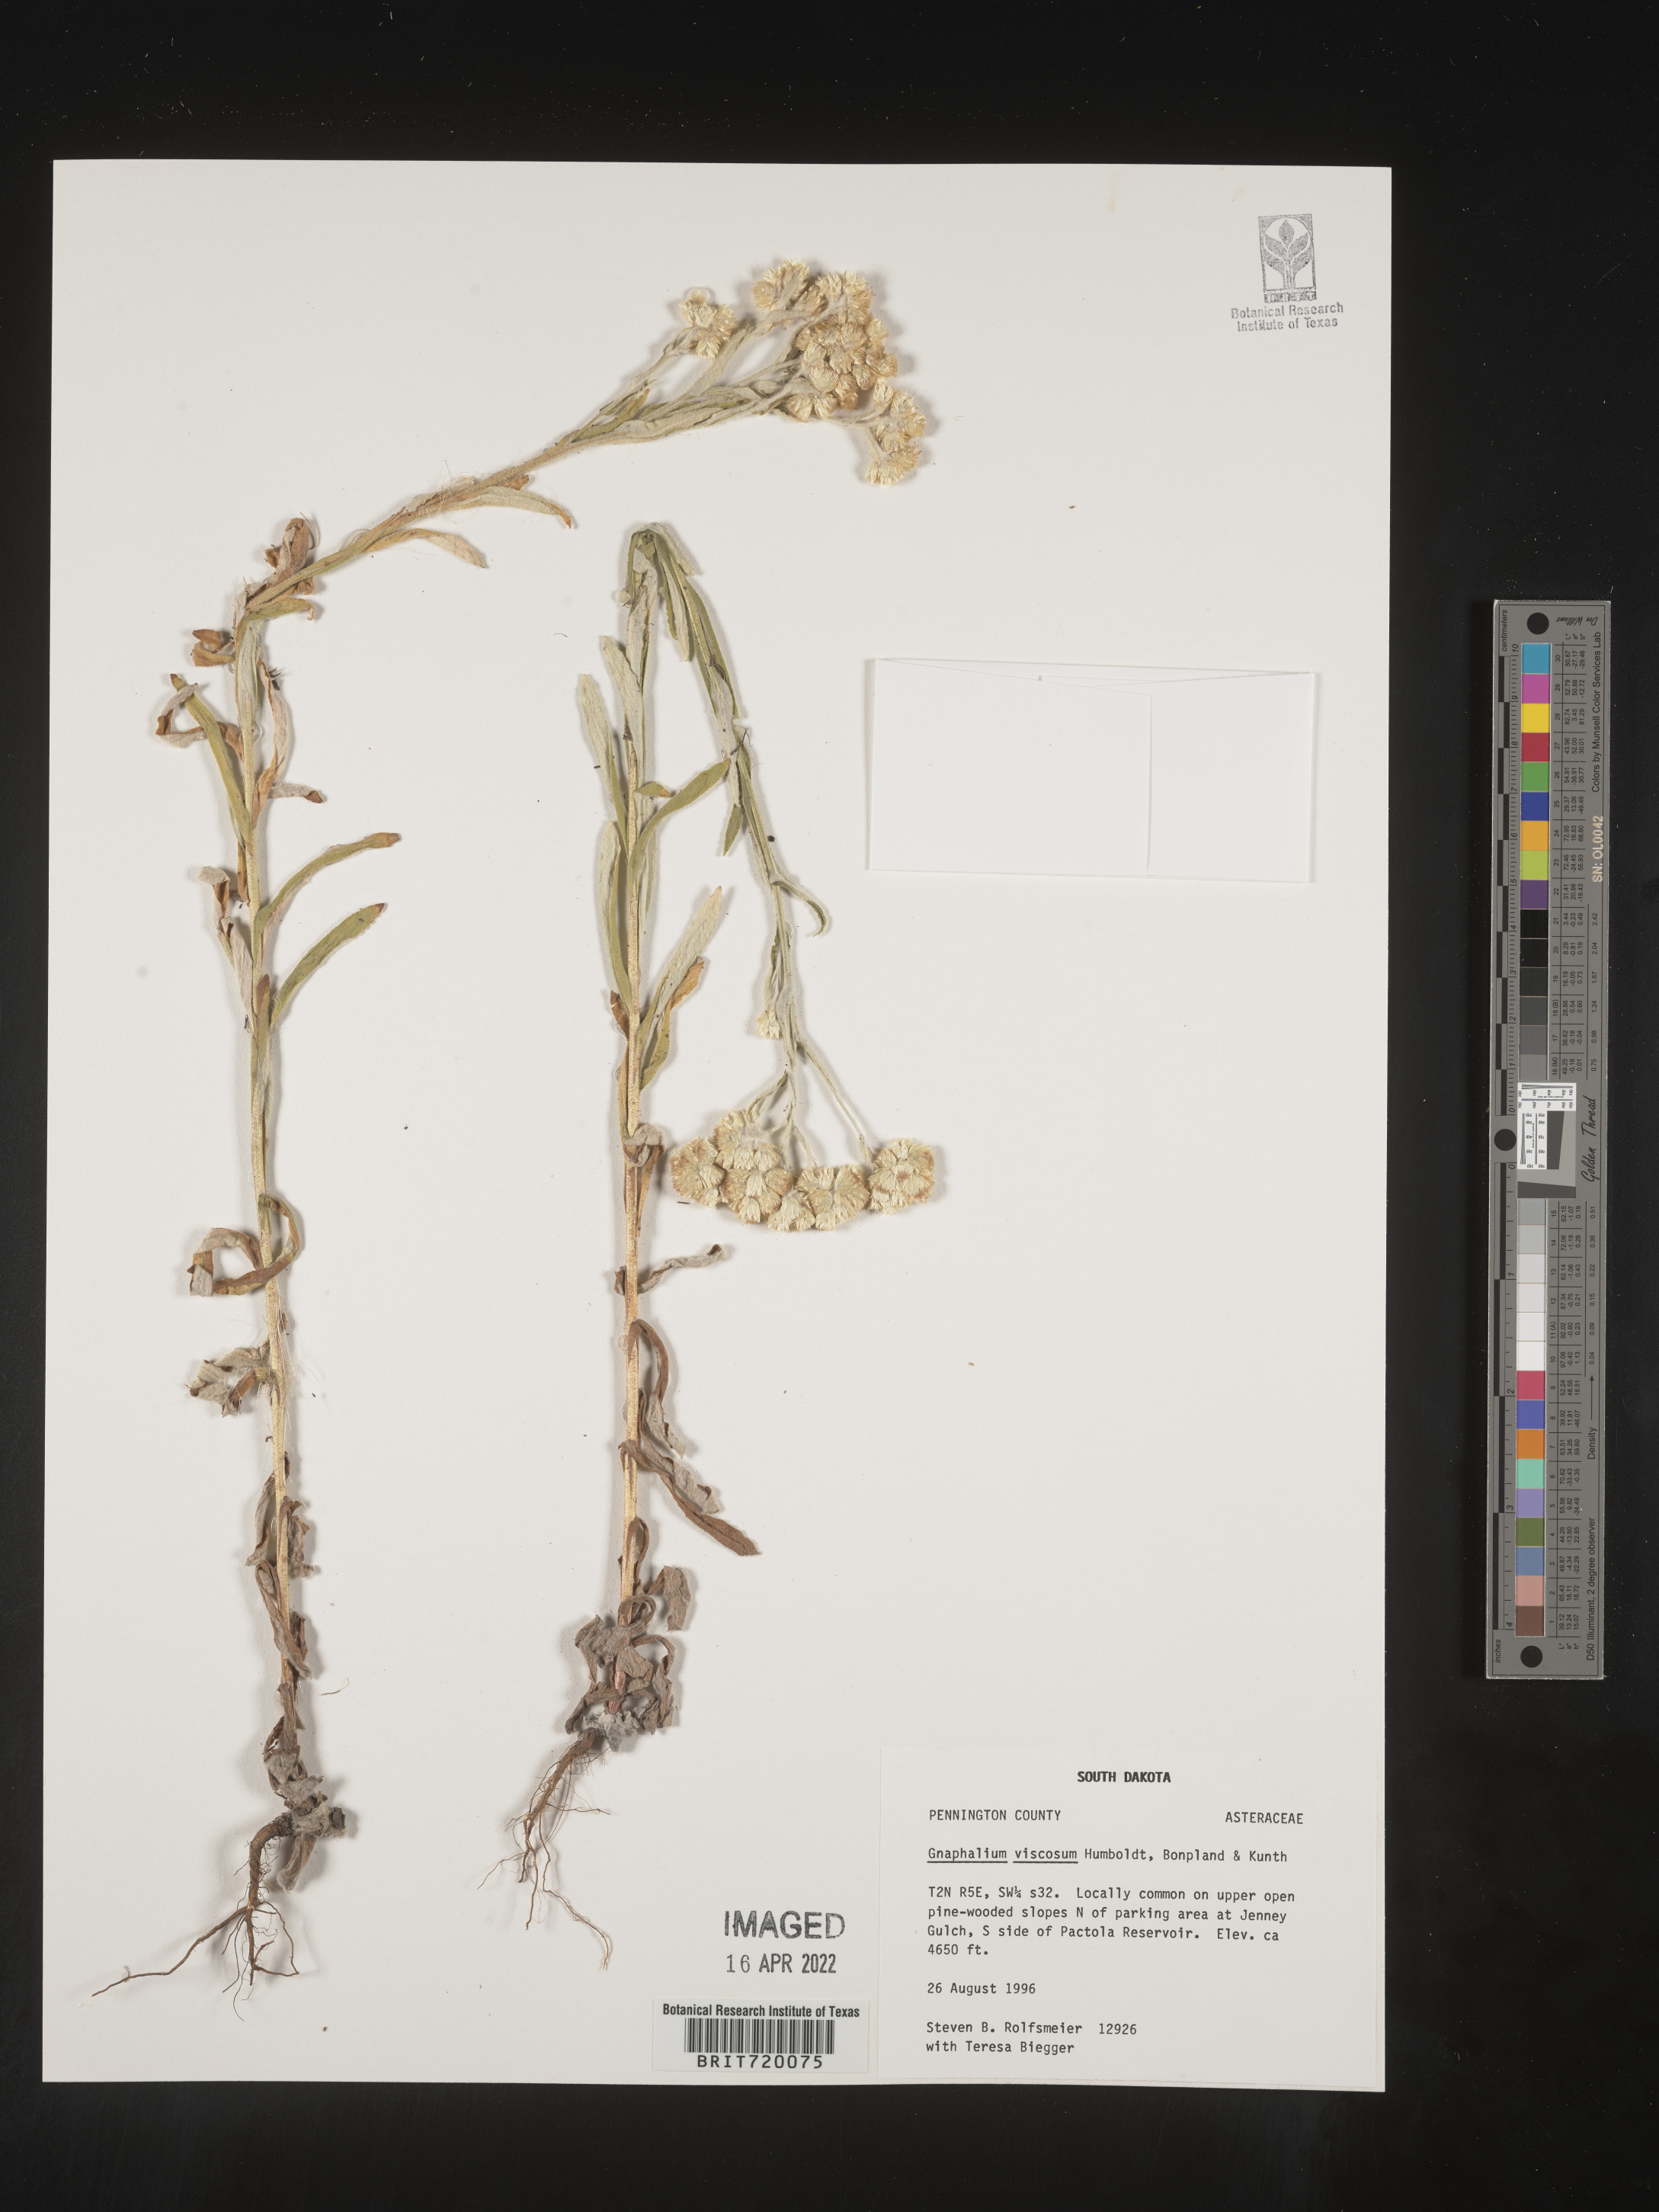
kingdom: Plantae
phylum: Tracheophyta
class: Magnoliopsida
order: Asterales
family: Asteraceae
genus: Pseudognaphalium
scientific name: Pseudognaphalium viscosum
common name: Sticky rabbit-tobacco
